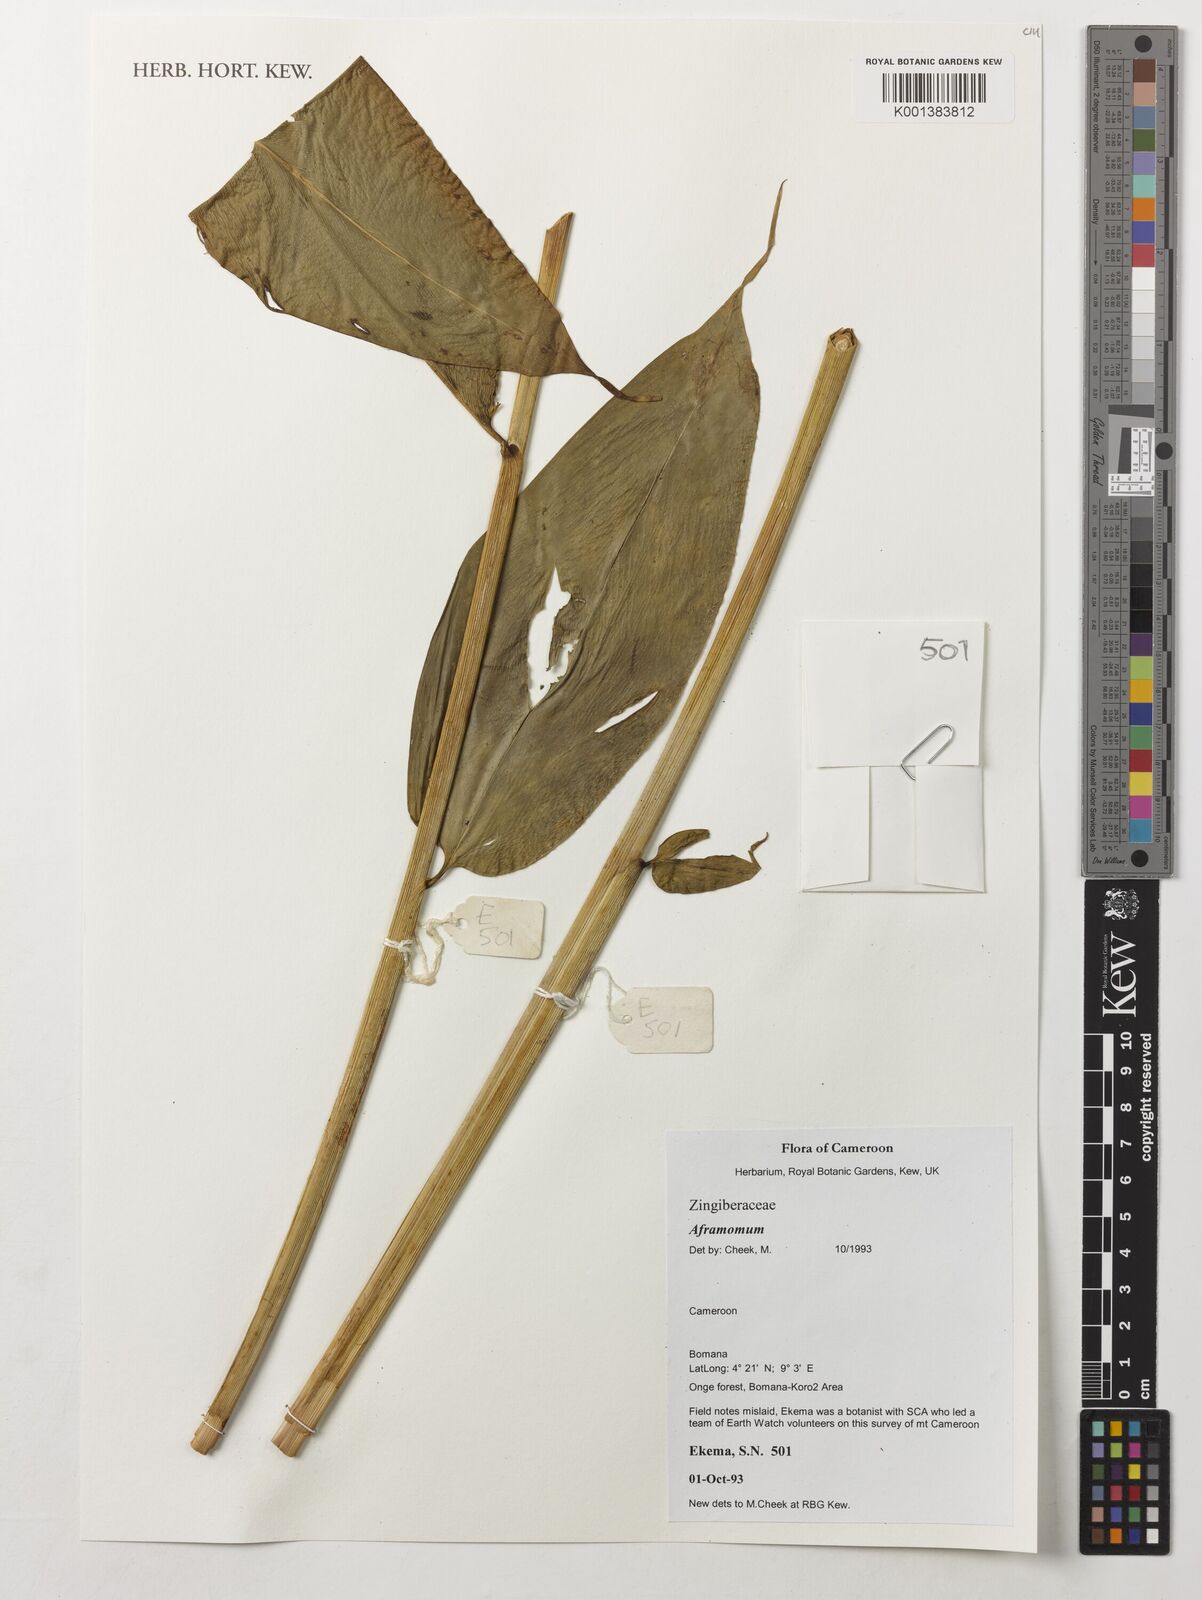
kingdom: Plantae
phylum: Tracheophyta
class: Liliopsida
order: Zingiberales
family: Zingiberaceae
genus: Aframomum
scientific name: Aframomum
